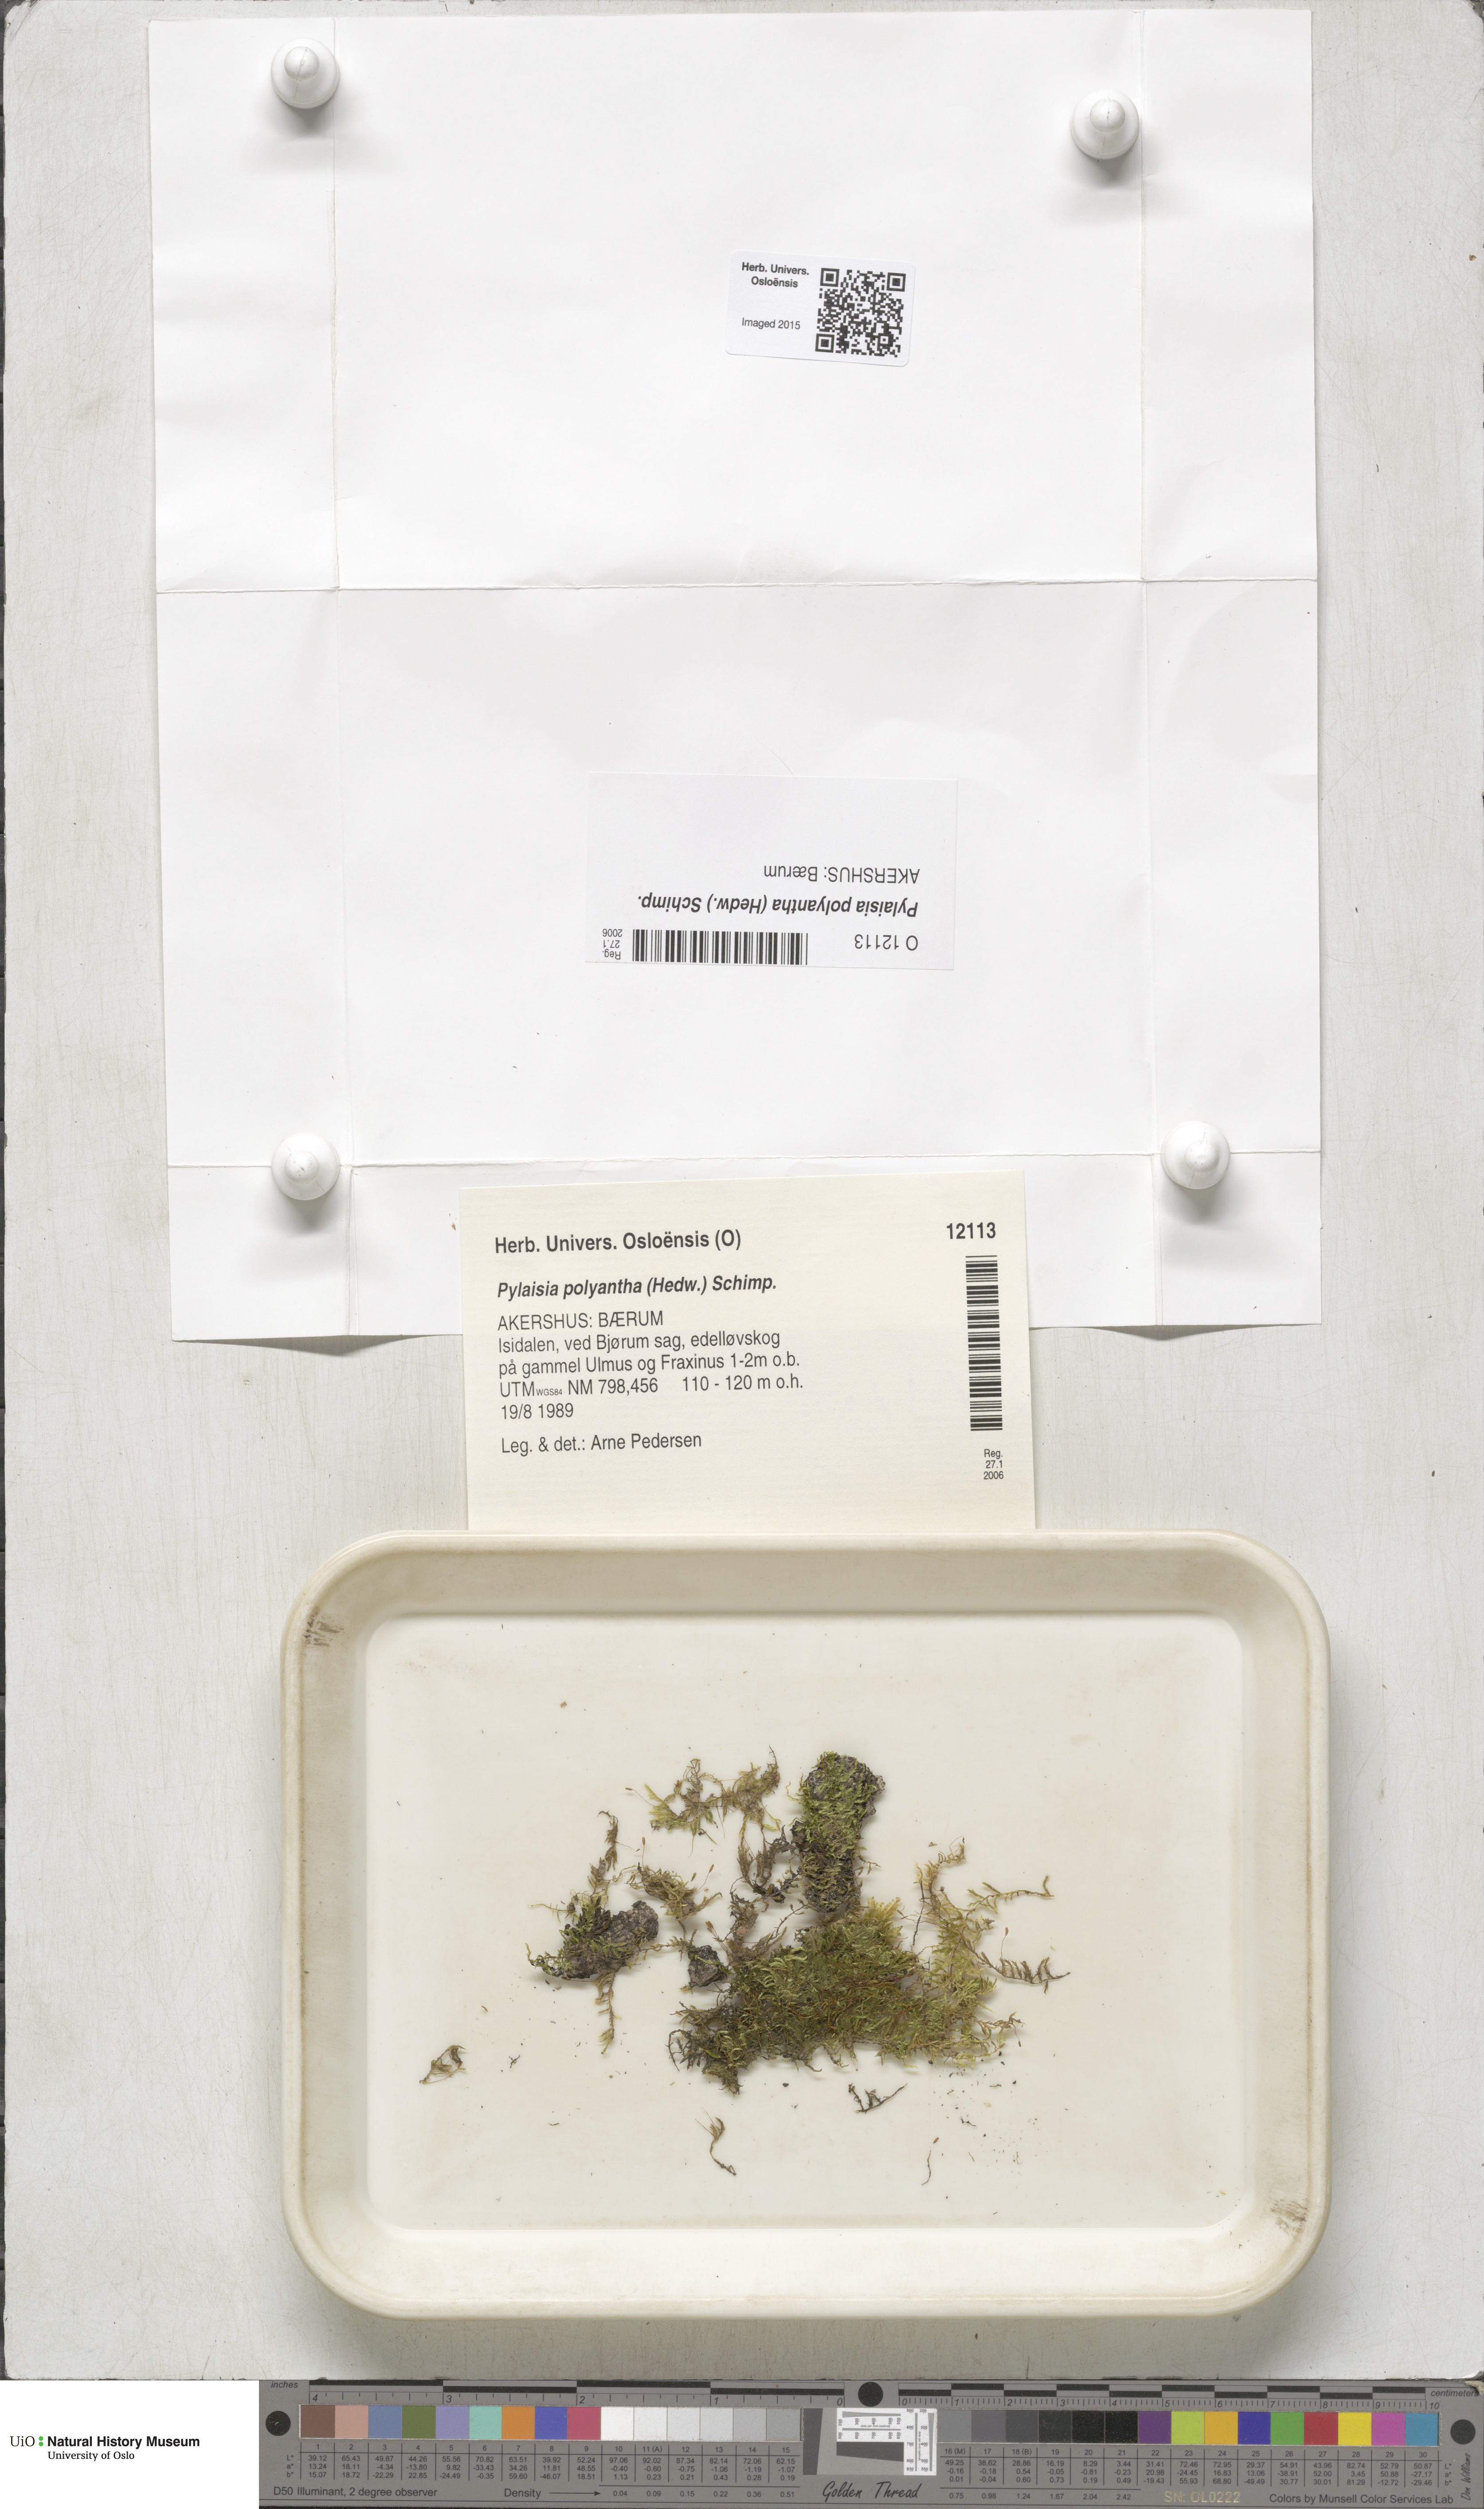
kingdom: Plantae
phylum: Bryophyta
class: Bryopsida
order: Hypnales
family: Pylaisiaceae
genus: Pylaisia
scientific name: Pylaisia polyantha
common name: Many-flowered leskea
